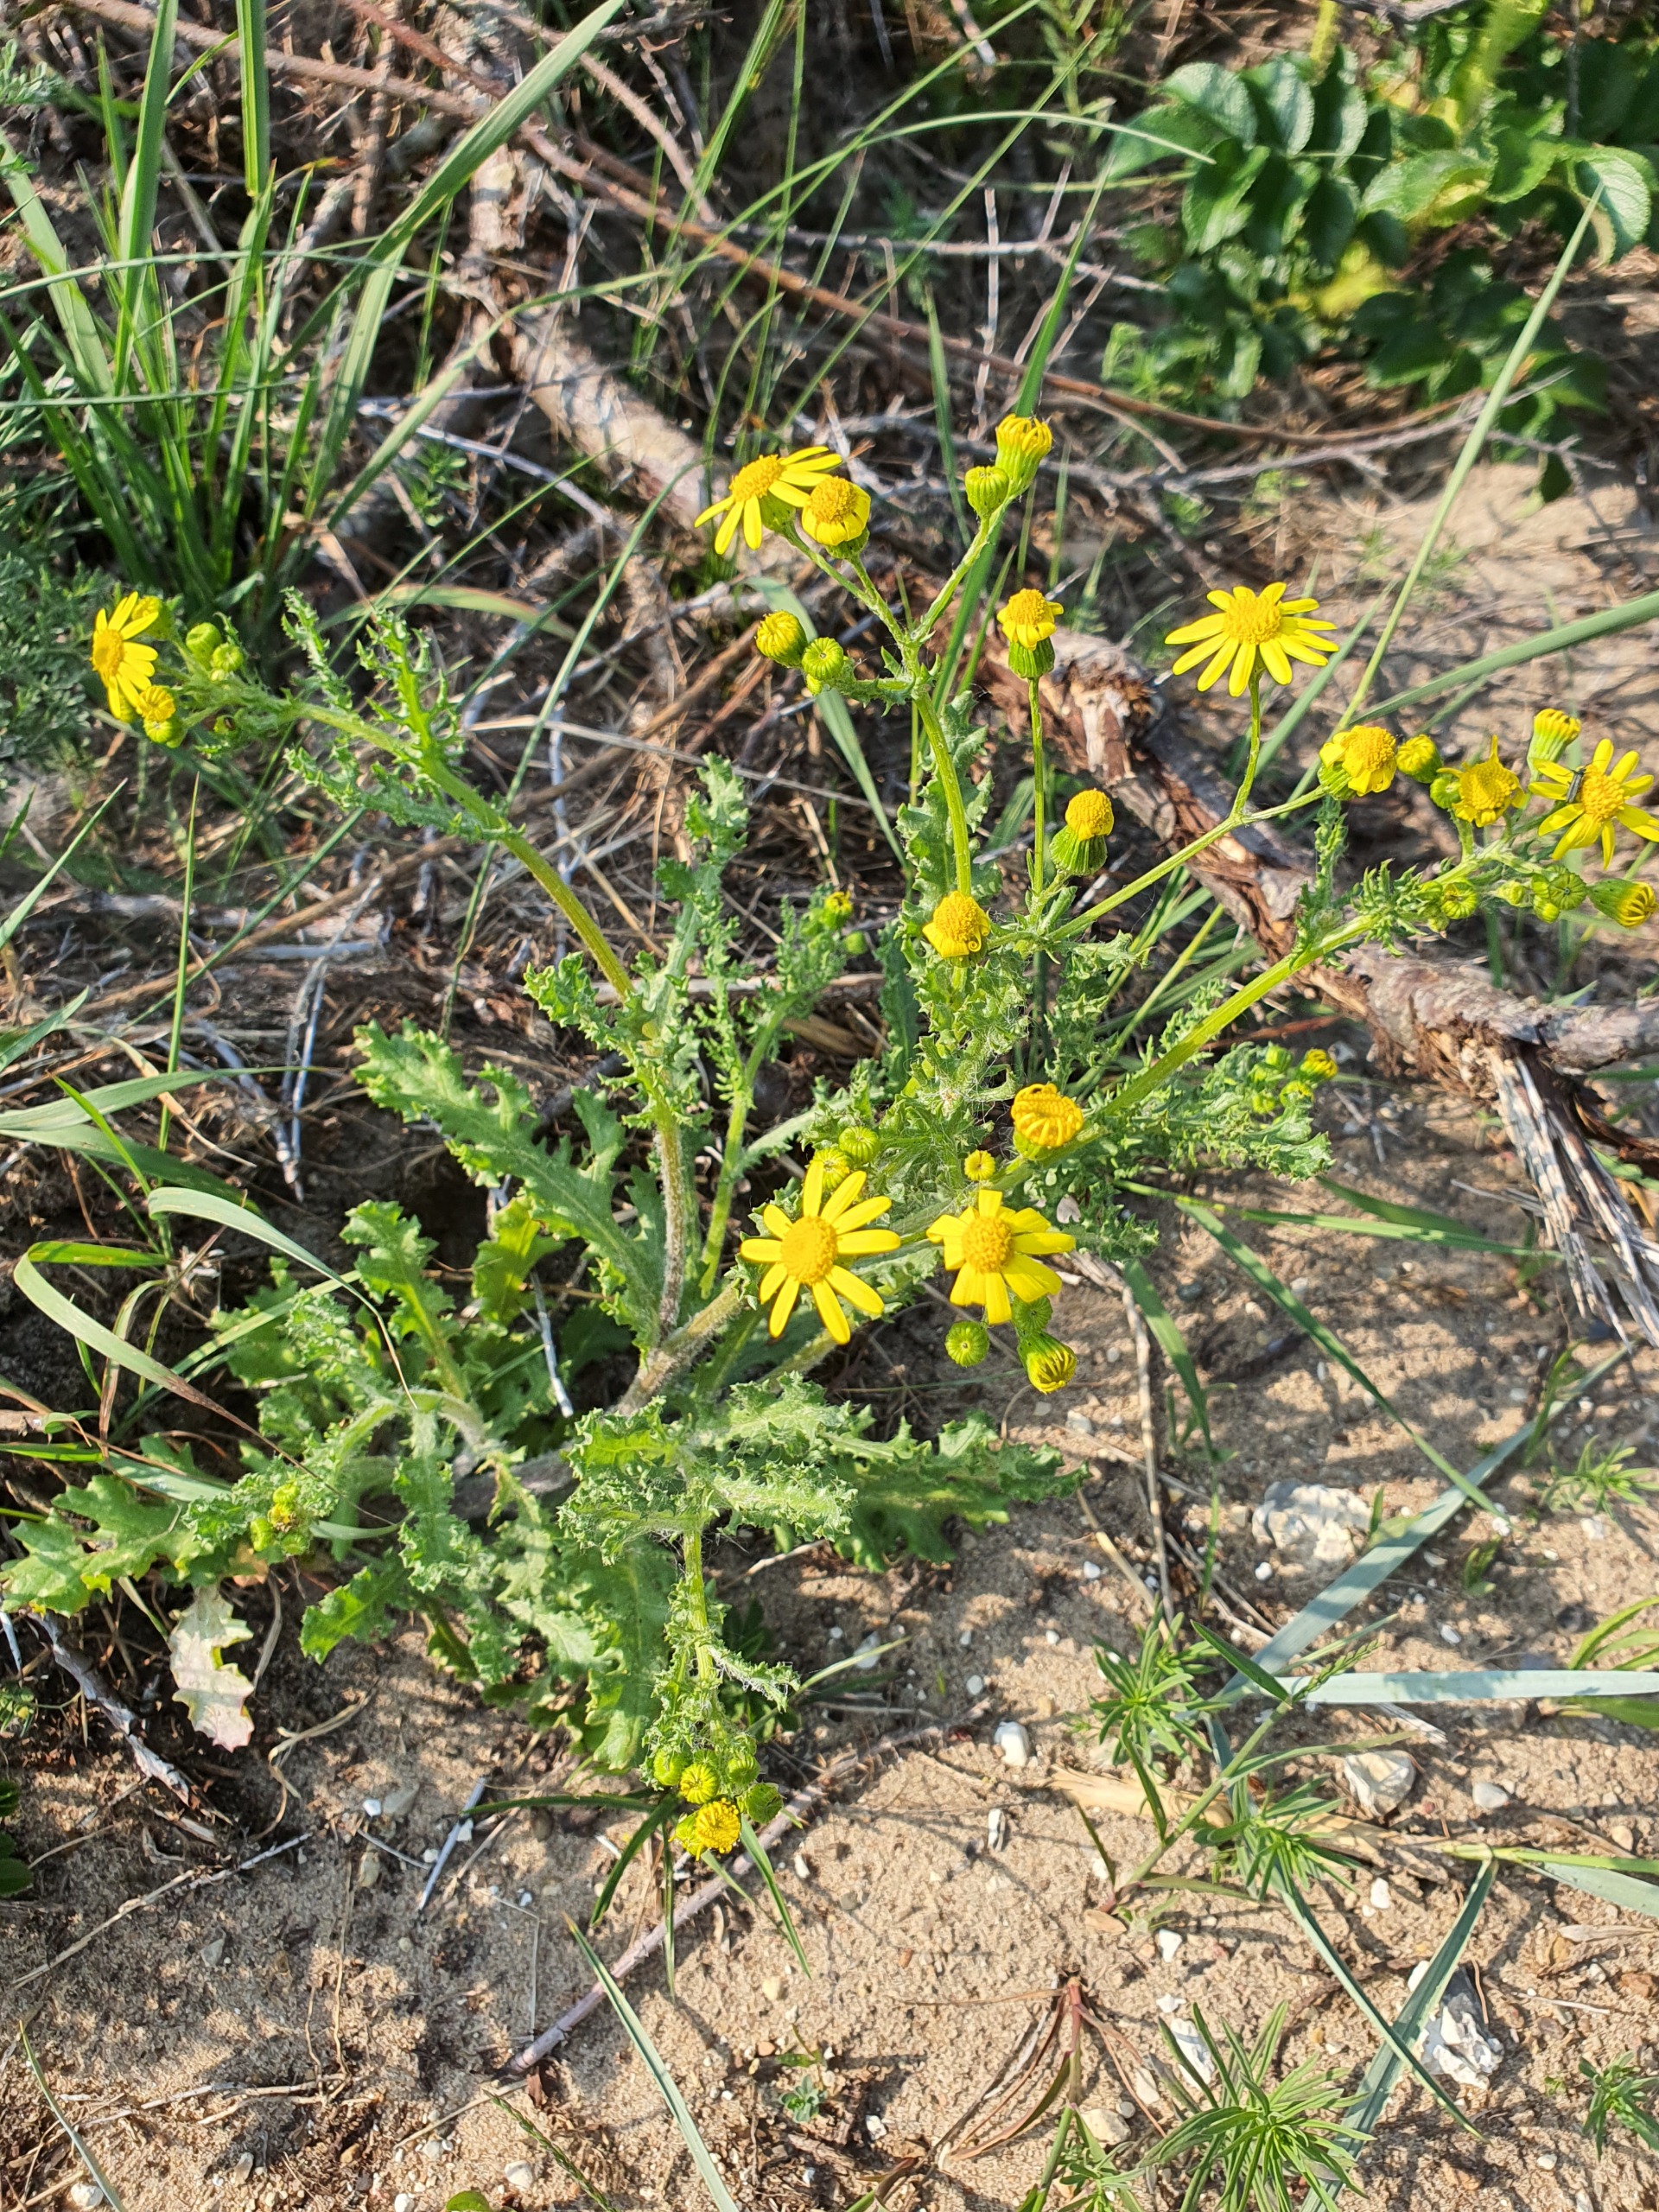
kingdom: Plantae
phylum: Tracheophyta
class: Magnoliopsida
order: Asterales
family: Asteraceae
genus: Senecio
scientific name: Senecio leucanthemifolius
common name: Vår-brandbæger
